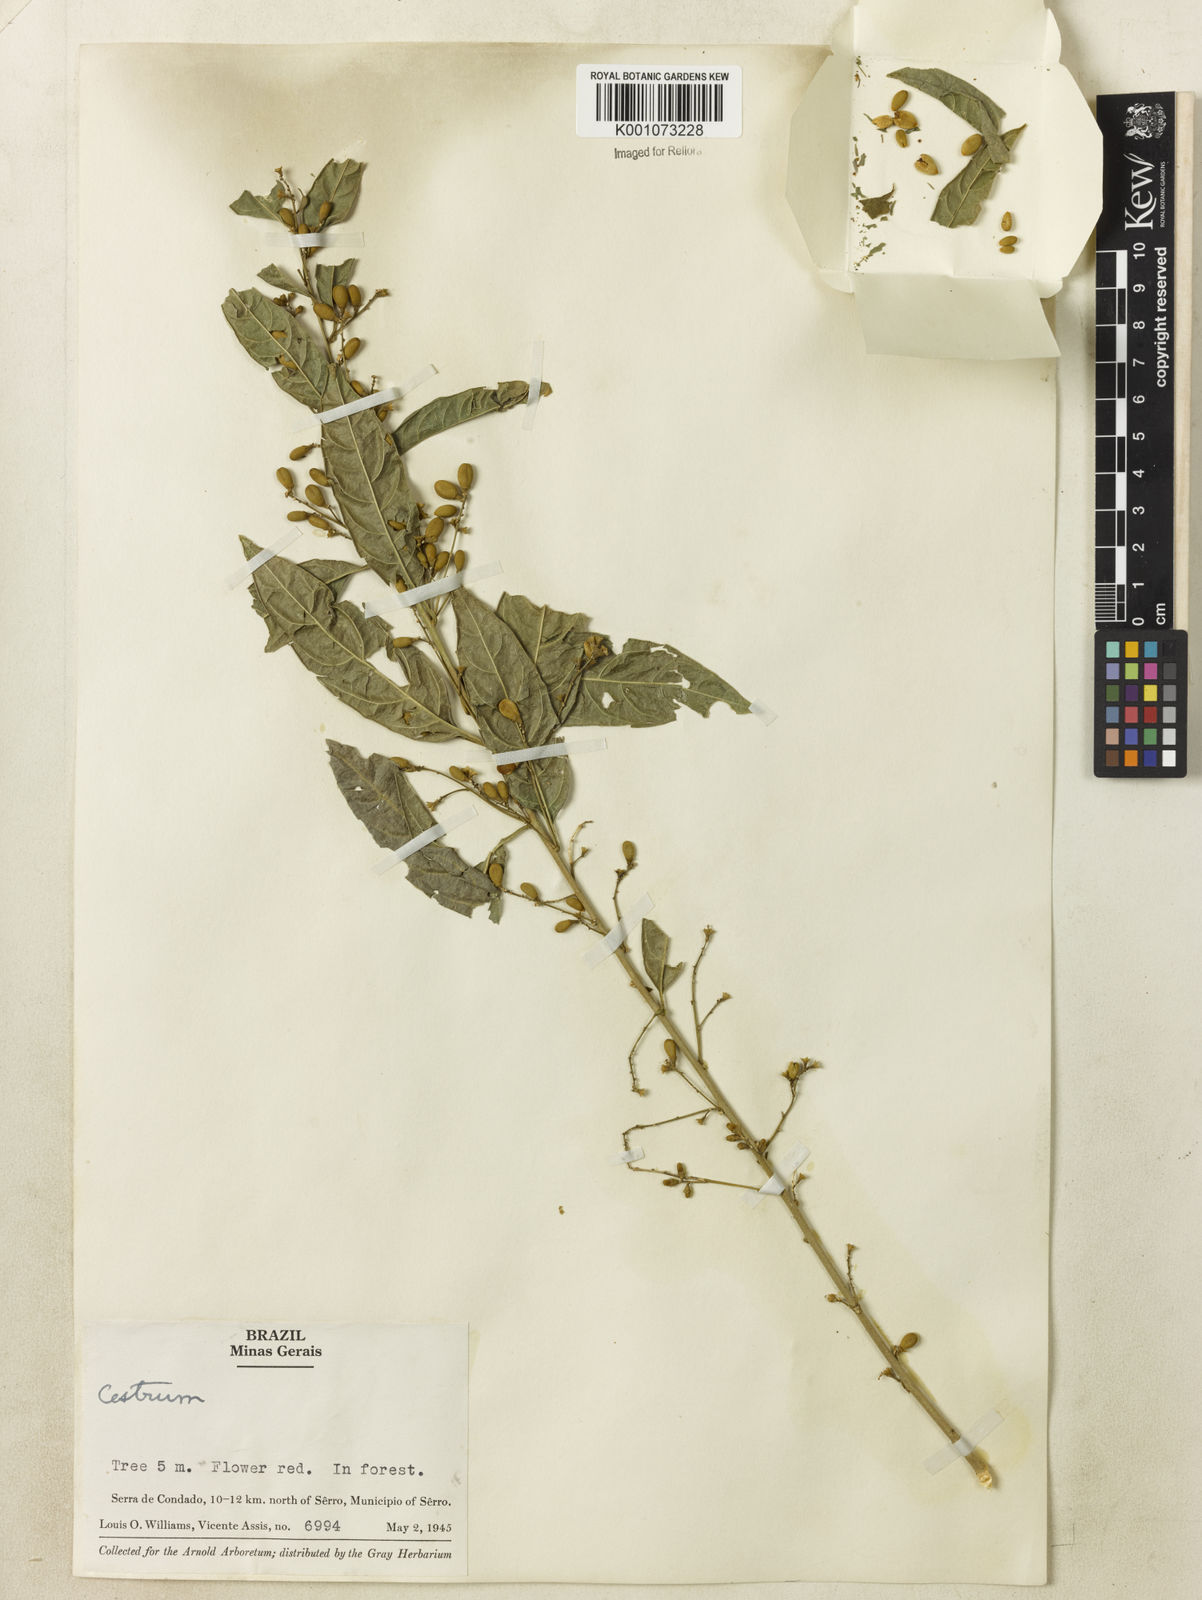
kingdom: Plantae
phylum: Tracheophyta
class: Magnoliopsida
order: Solanales
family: Solanaceae
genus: Cestrum
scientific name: Cestrum
